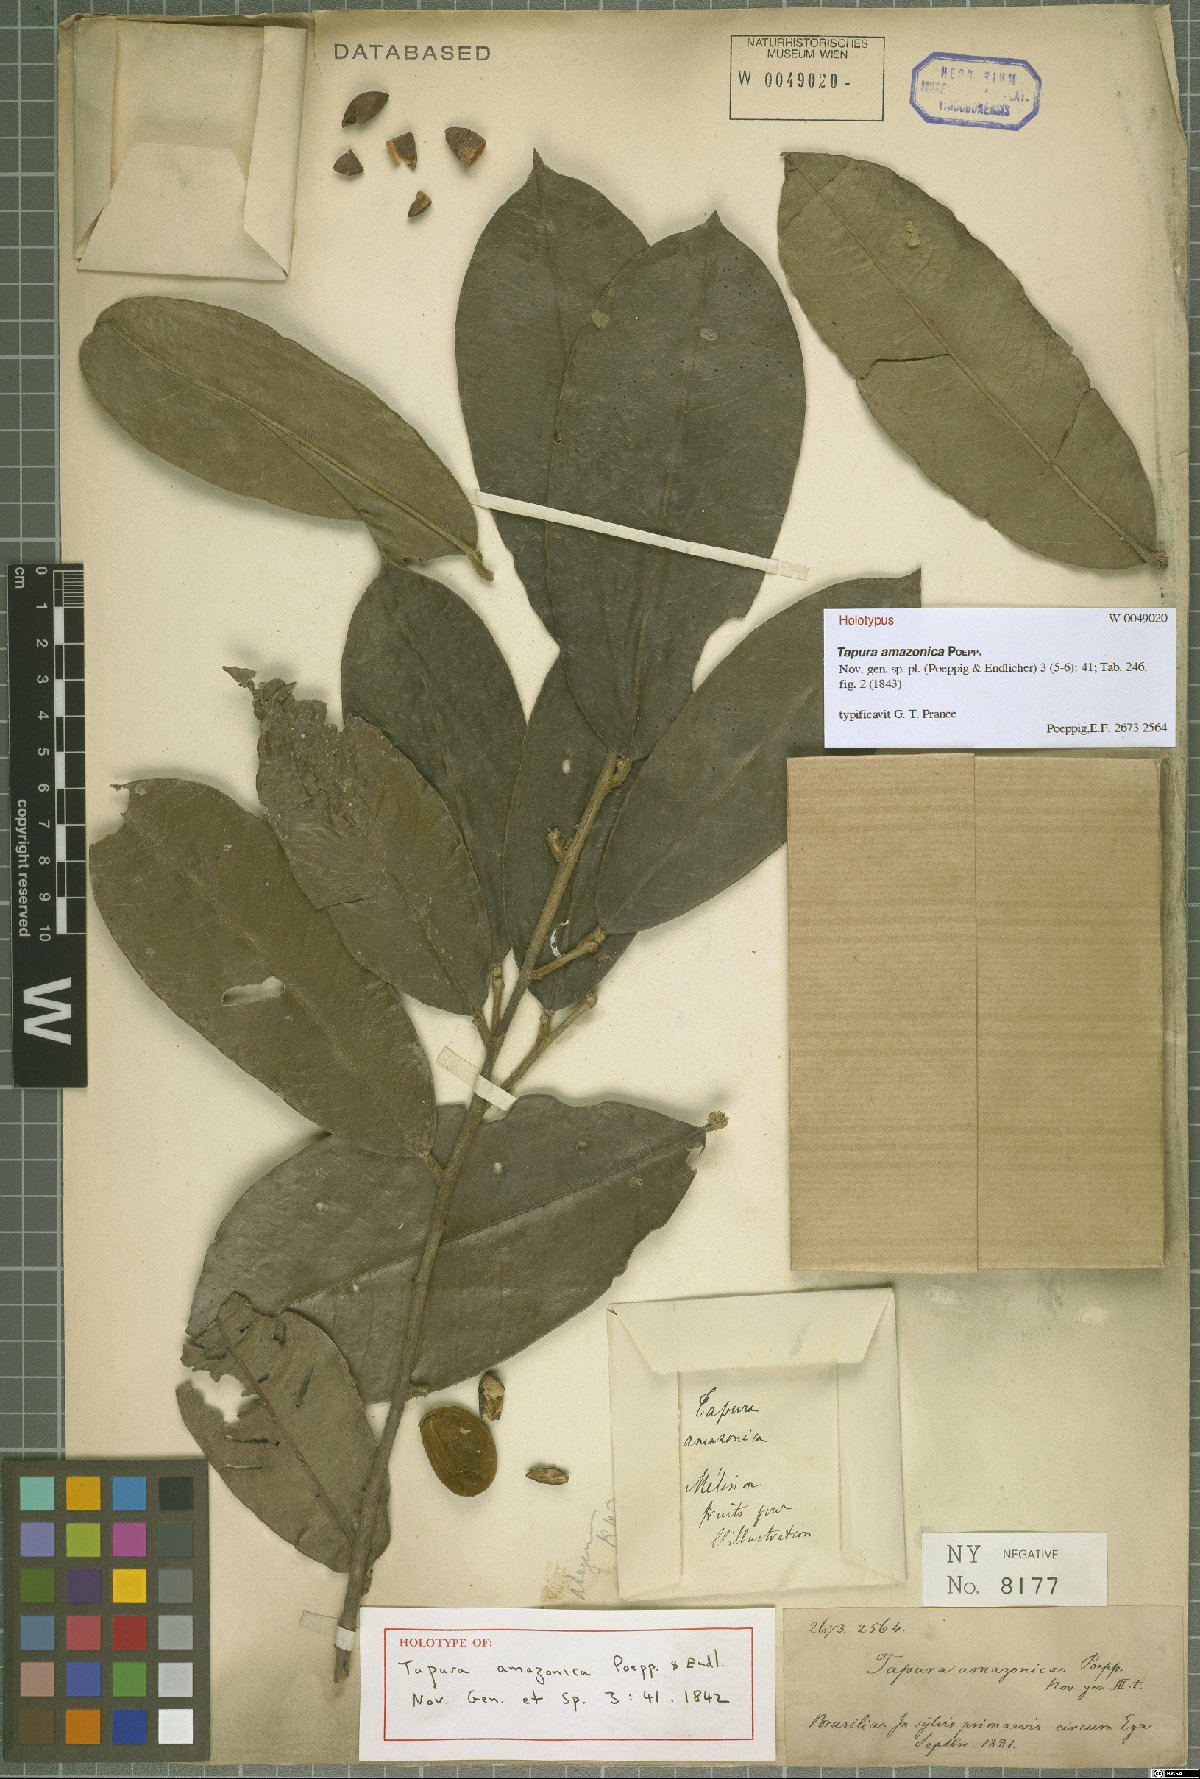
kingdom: Plantae
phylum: Tracheophyta
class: Magnoliopsida
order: Malpighiales
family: Dichapetalaceae
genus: Tapura
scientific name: Tapura amazonica
